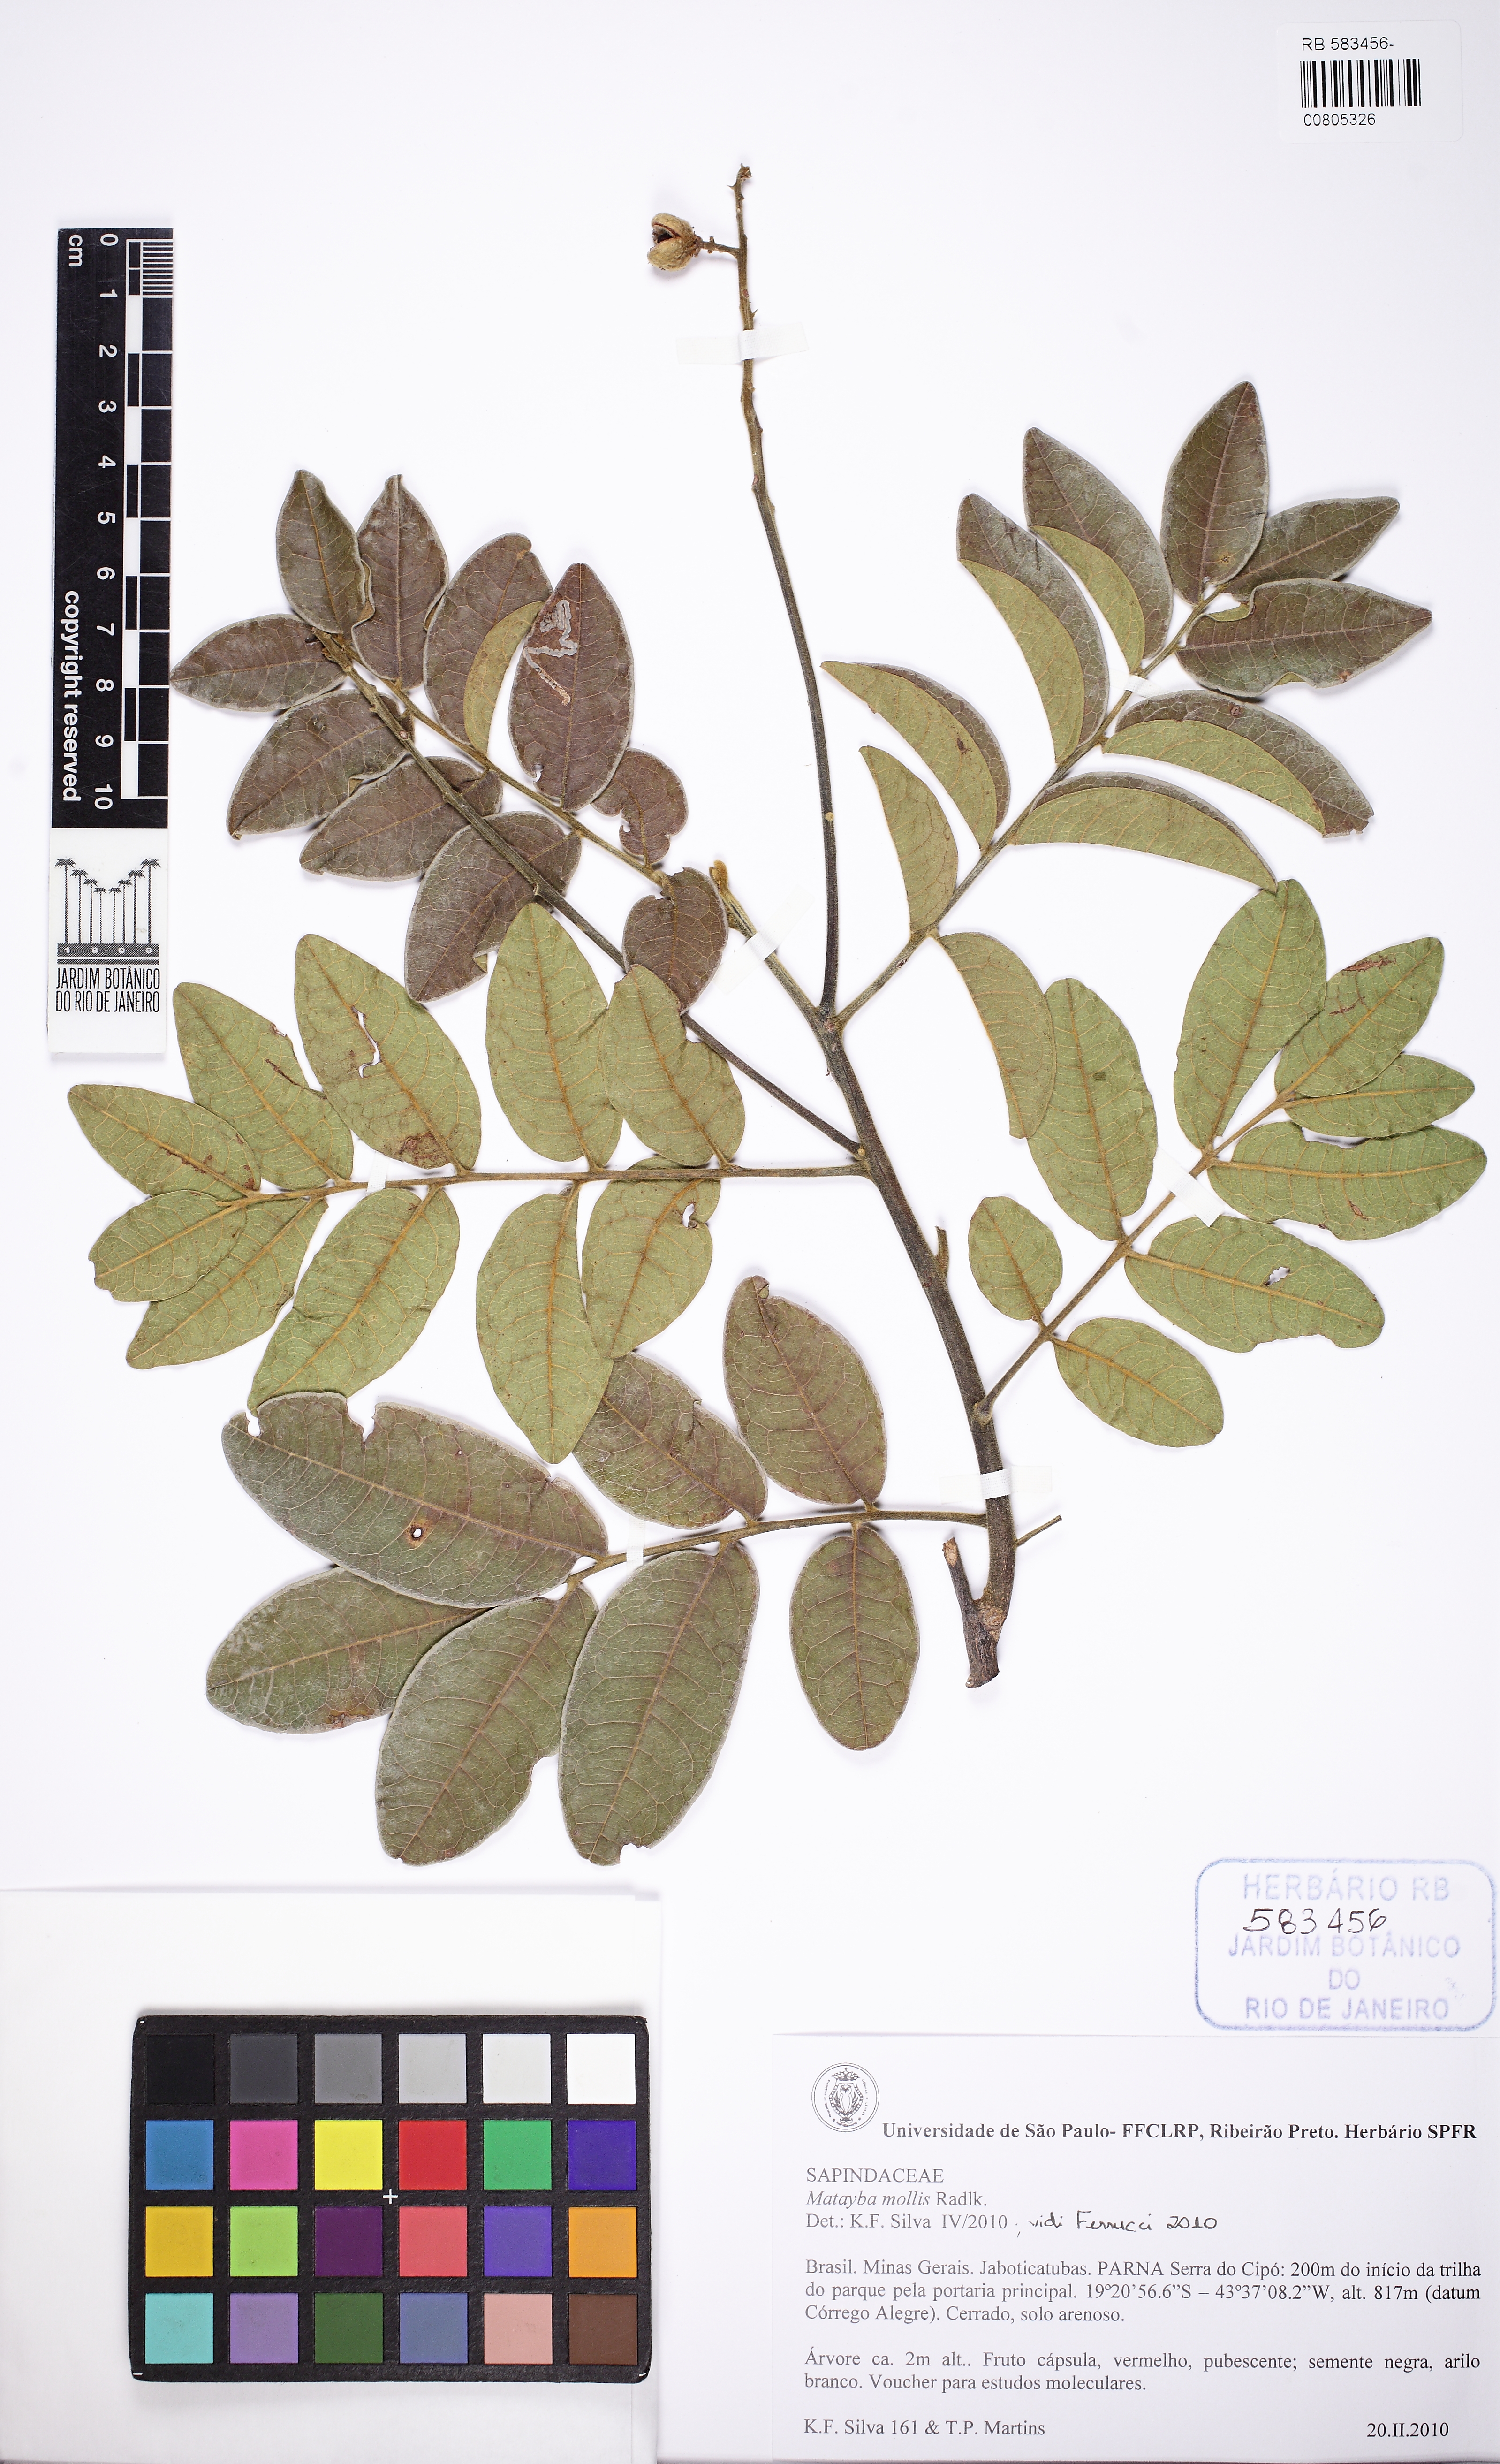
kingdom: Plantae
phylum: Tracheophyta
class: Magnoliopsida
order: Sapindales
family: Sapindaceae
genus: Matayba
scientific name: Matayba mollis
